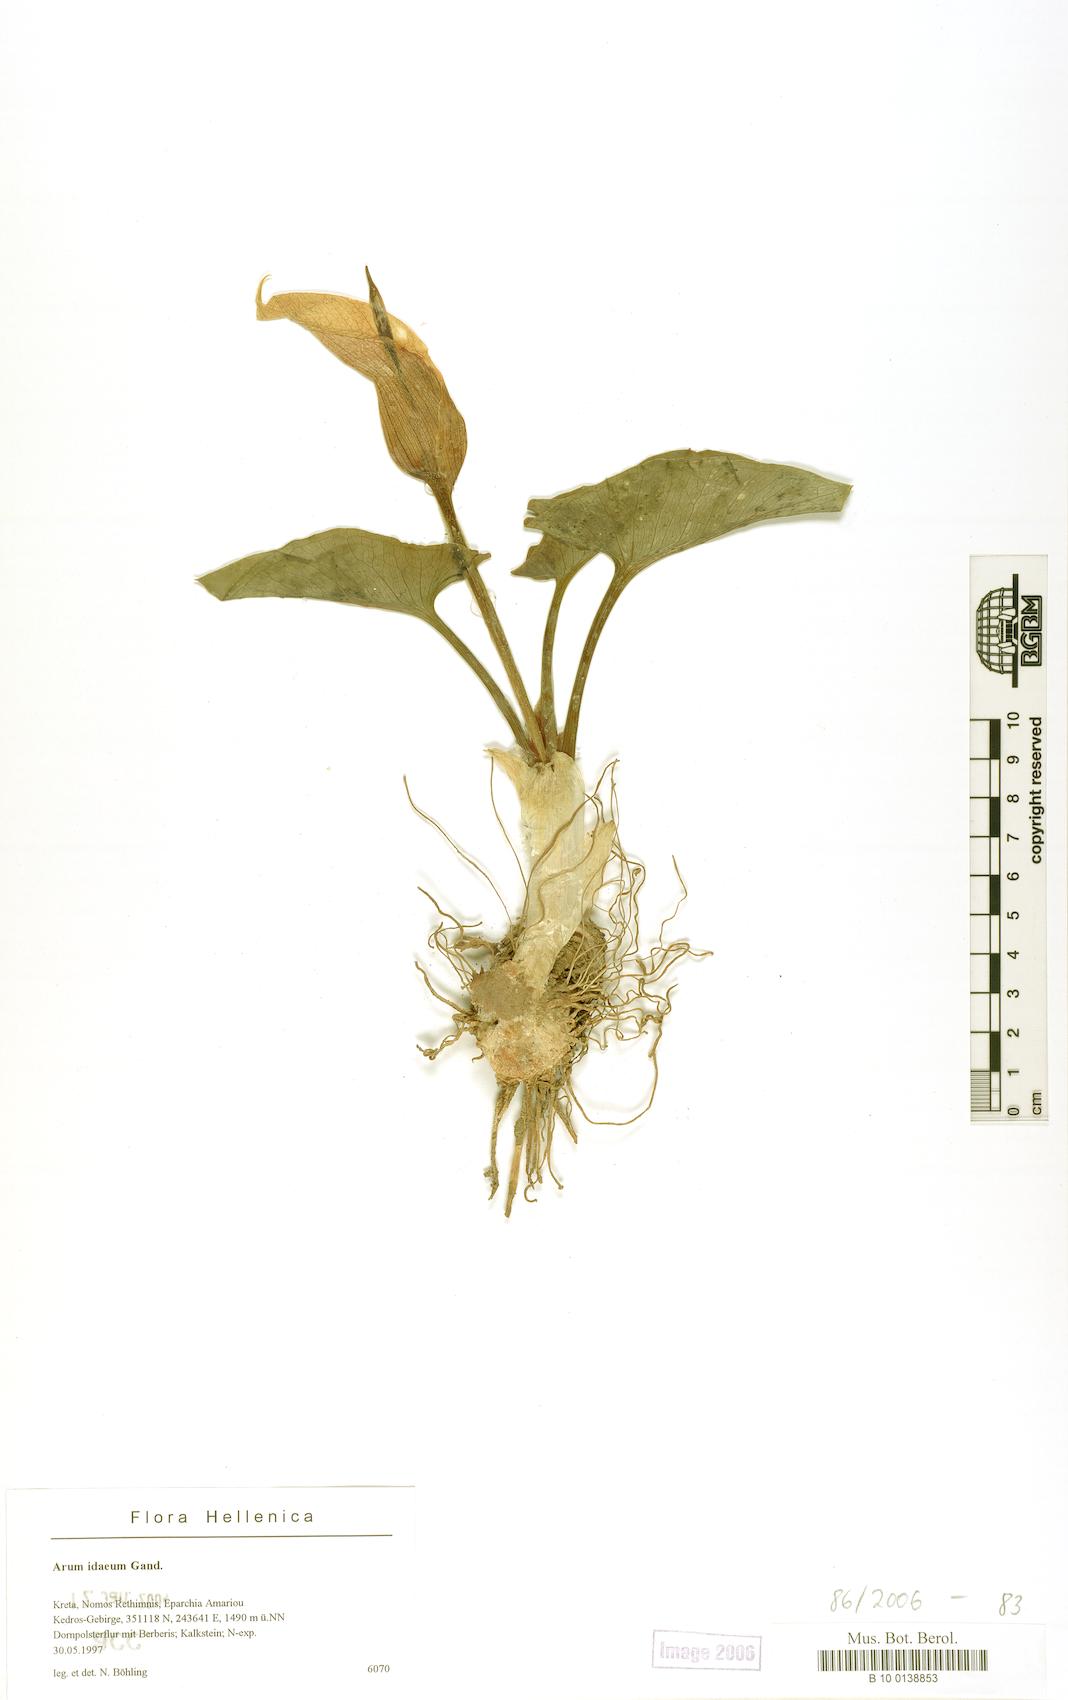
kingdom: Plantae
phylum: Tracheophyta
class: Liliopsida
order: Alismatales
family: Araceae
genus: Arum
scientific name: Arum idaeum
